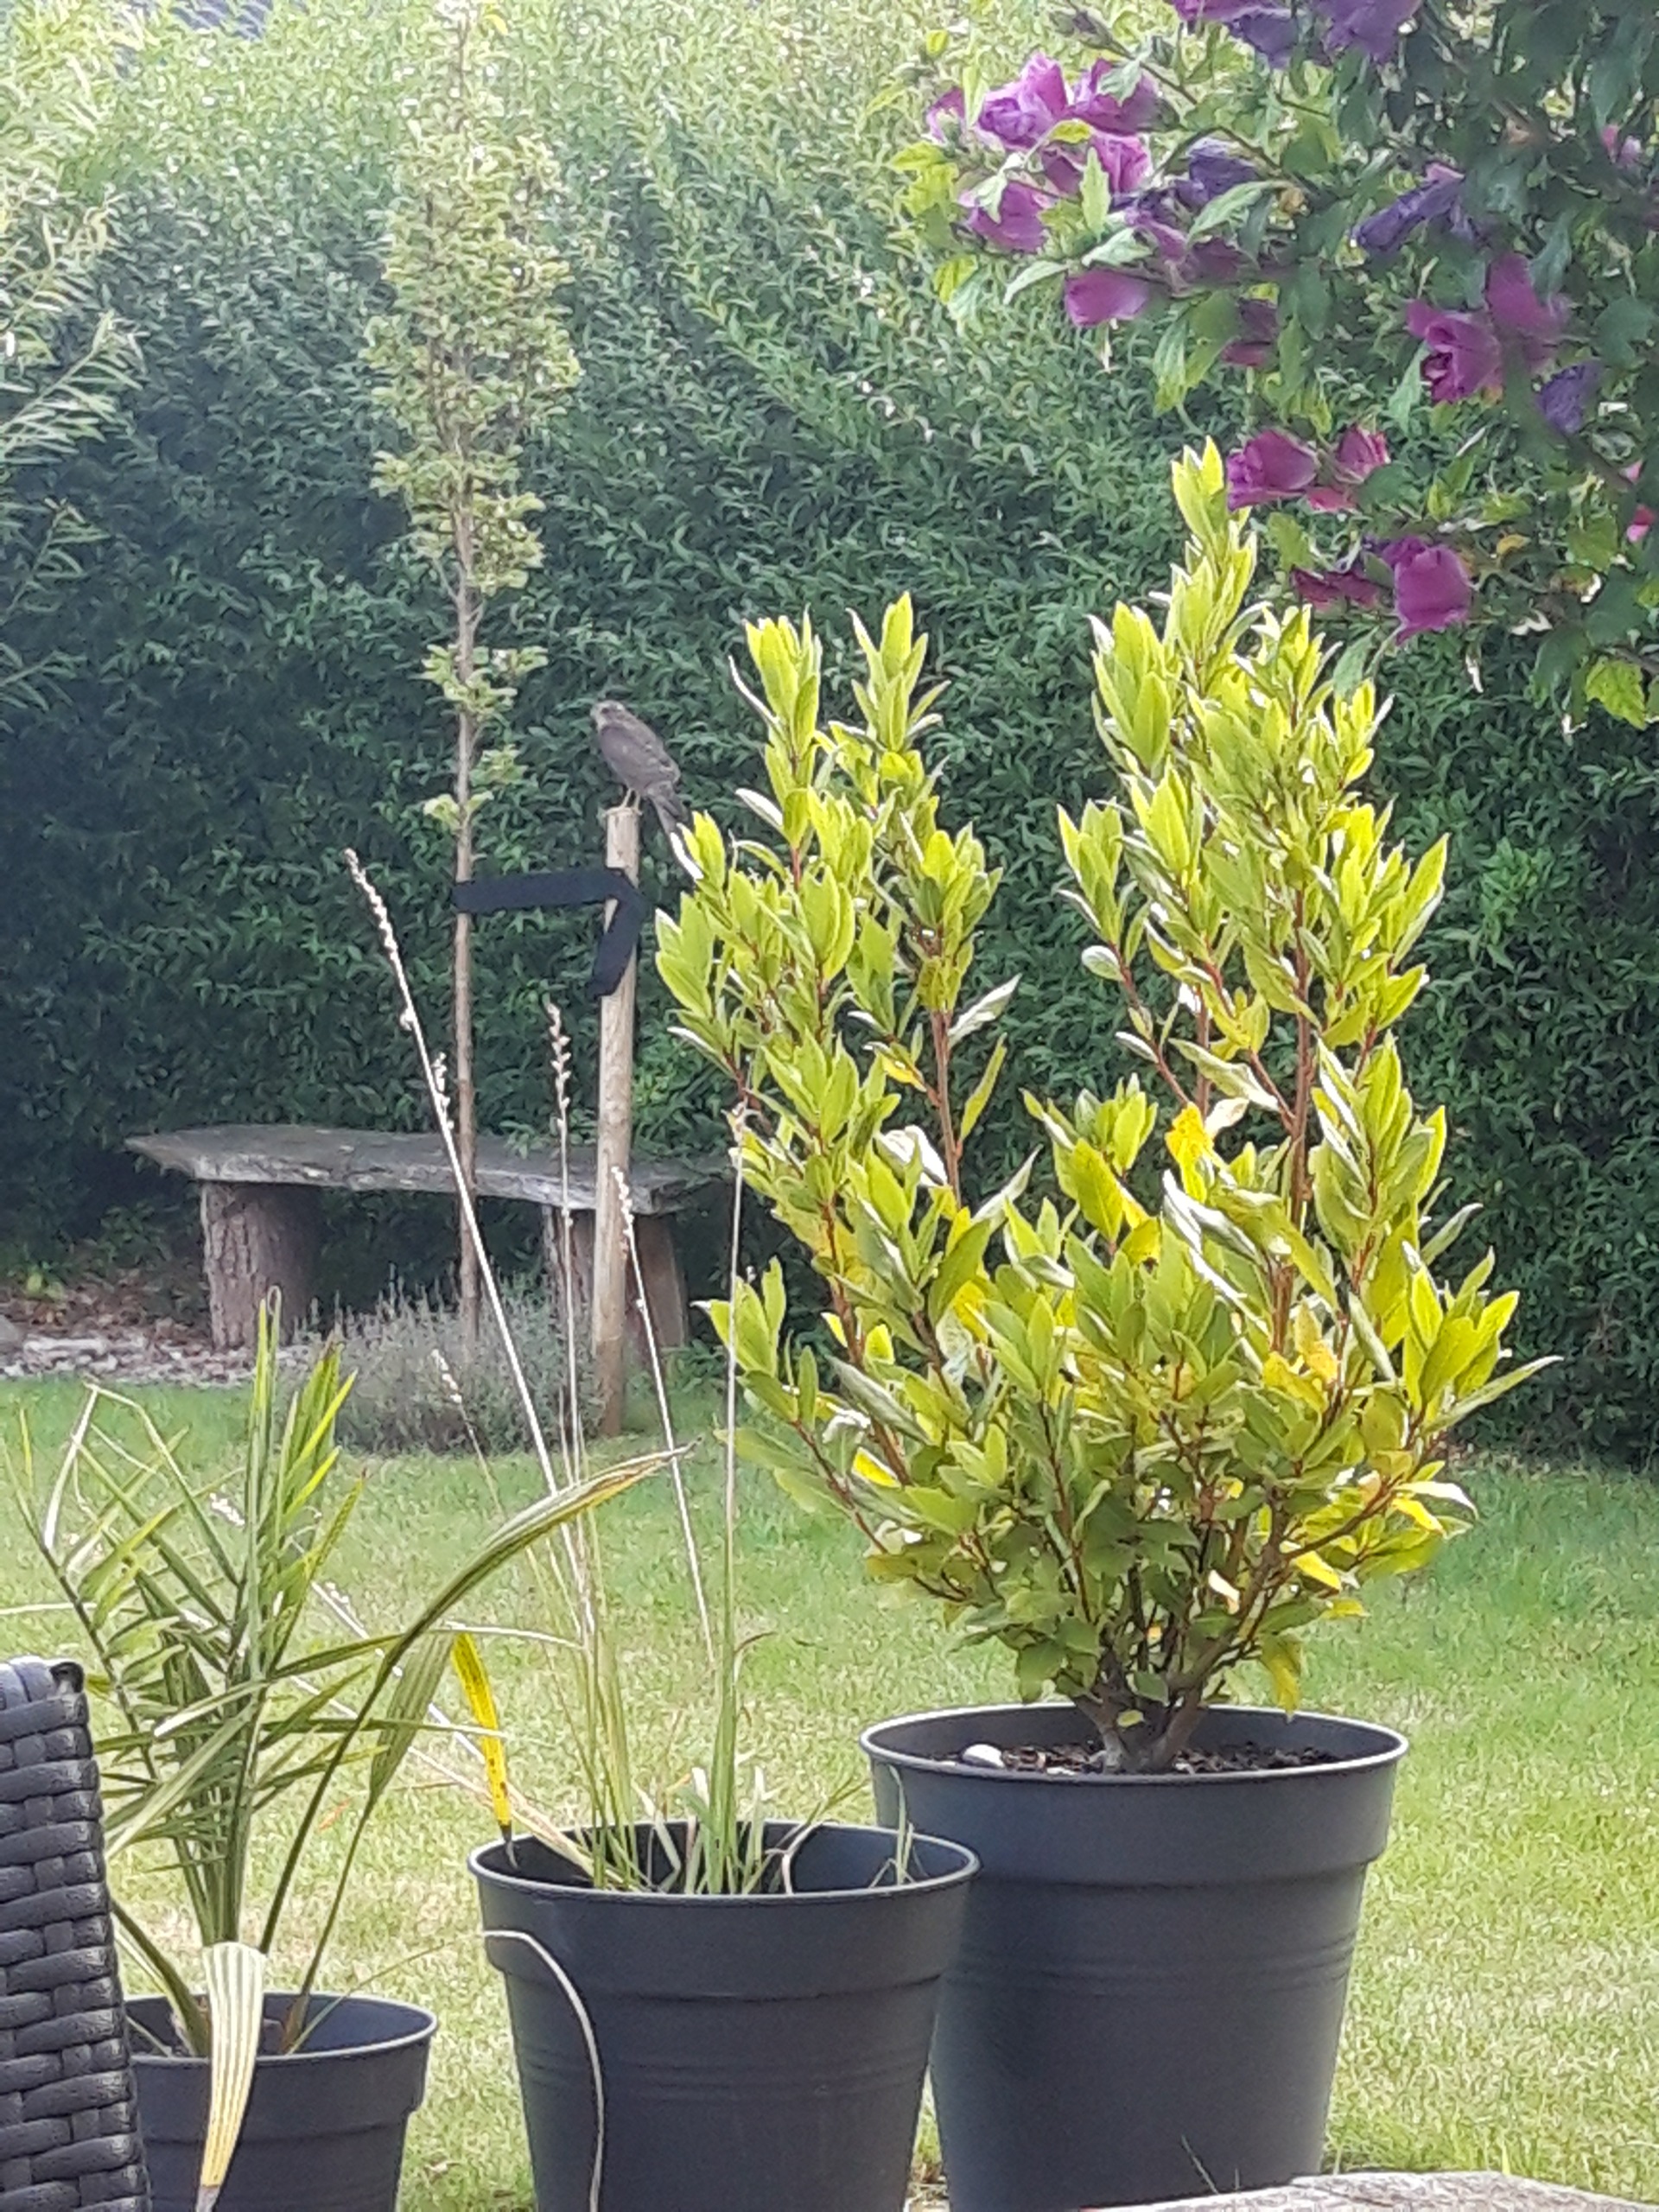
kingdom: Animalia
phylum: Chordata
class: Aves
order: Accipitriformes
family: Accipitridae
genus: Accipiter
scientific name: Accipiter nisus
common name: Spurvehøg
